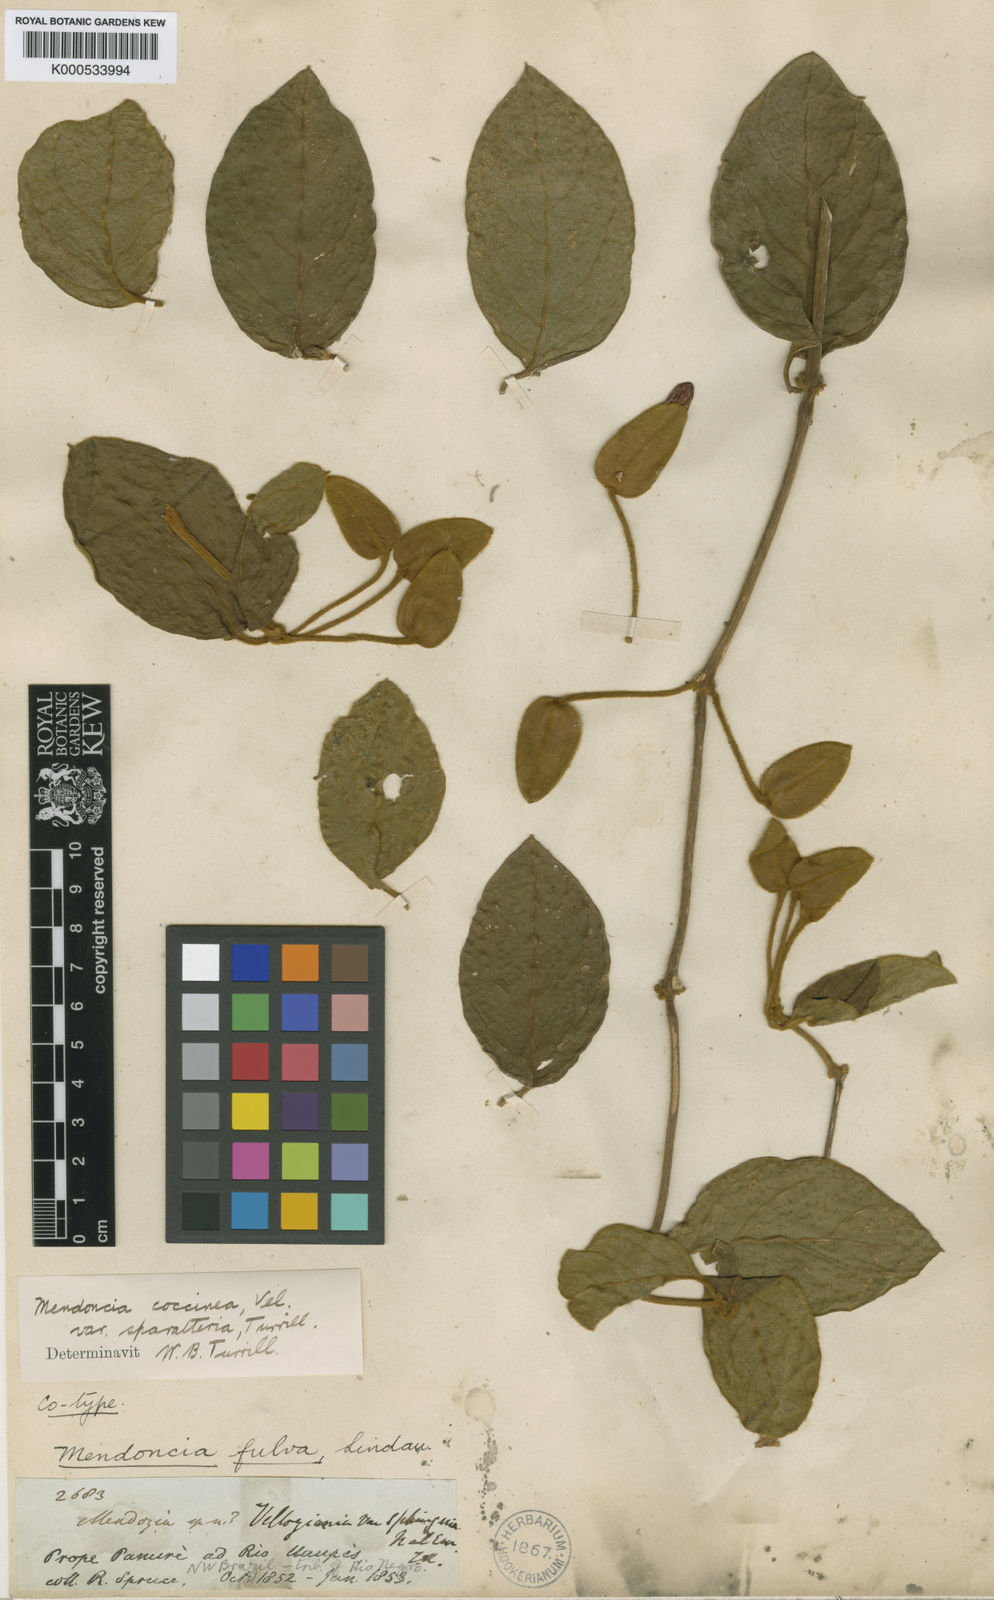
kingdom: Plantae
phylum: Tracheophyta
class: Magnoliopsida
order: Lamiales
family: Acanthaceae
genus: Mendoncia
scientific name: Mendoncia coccinea
